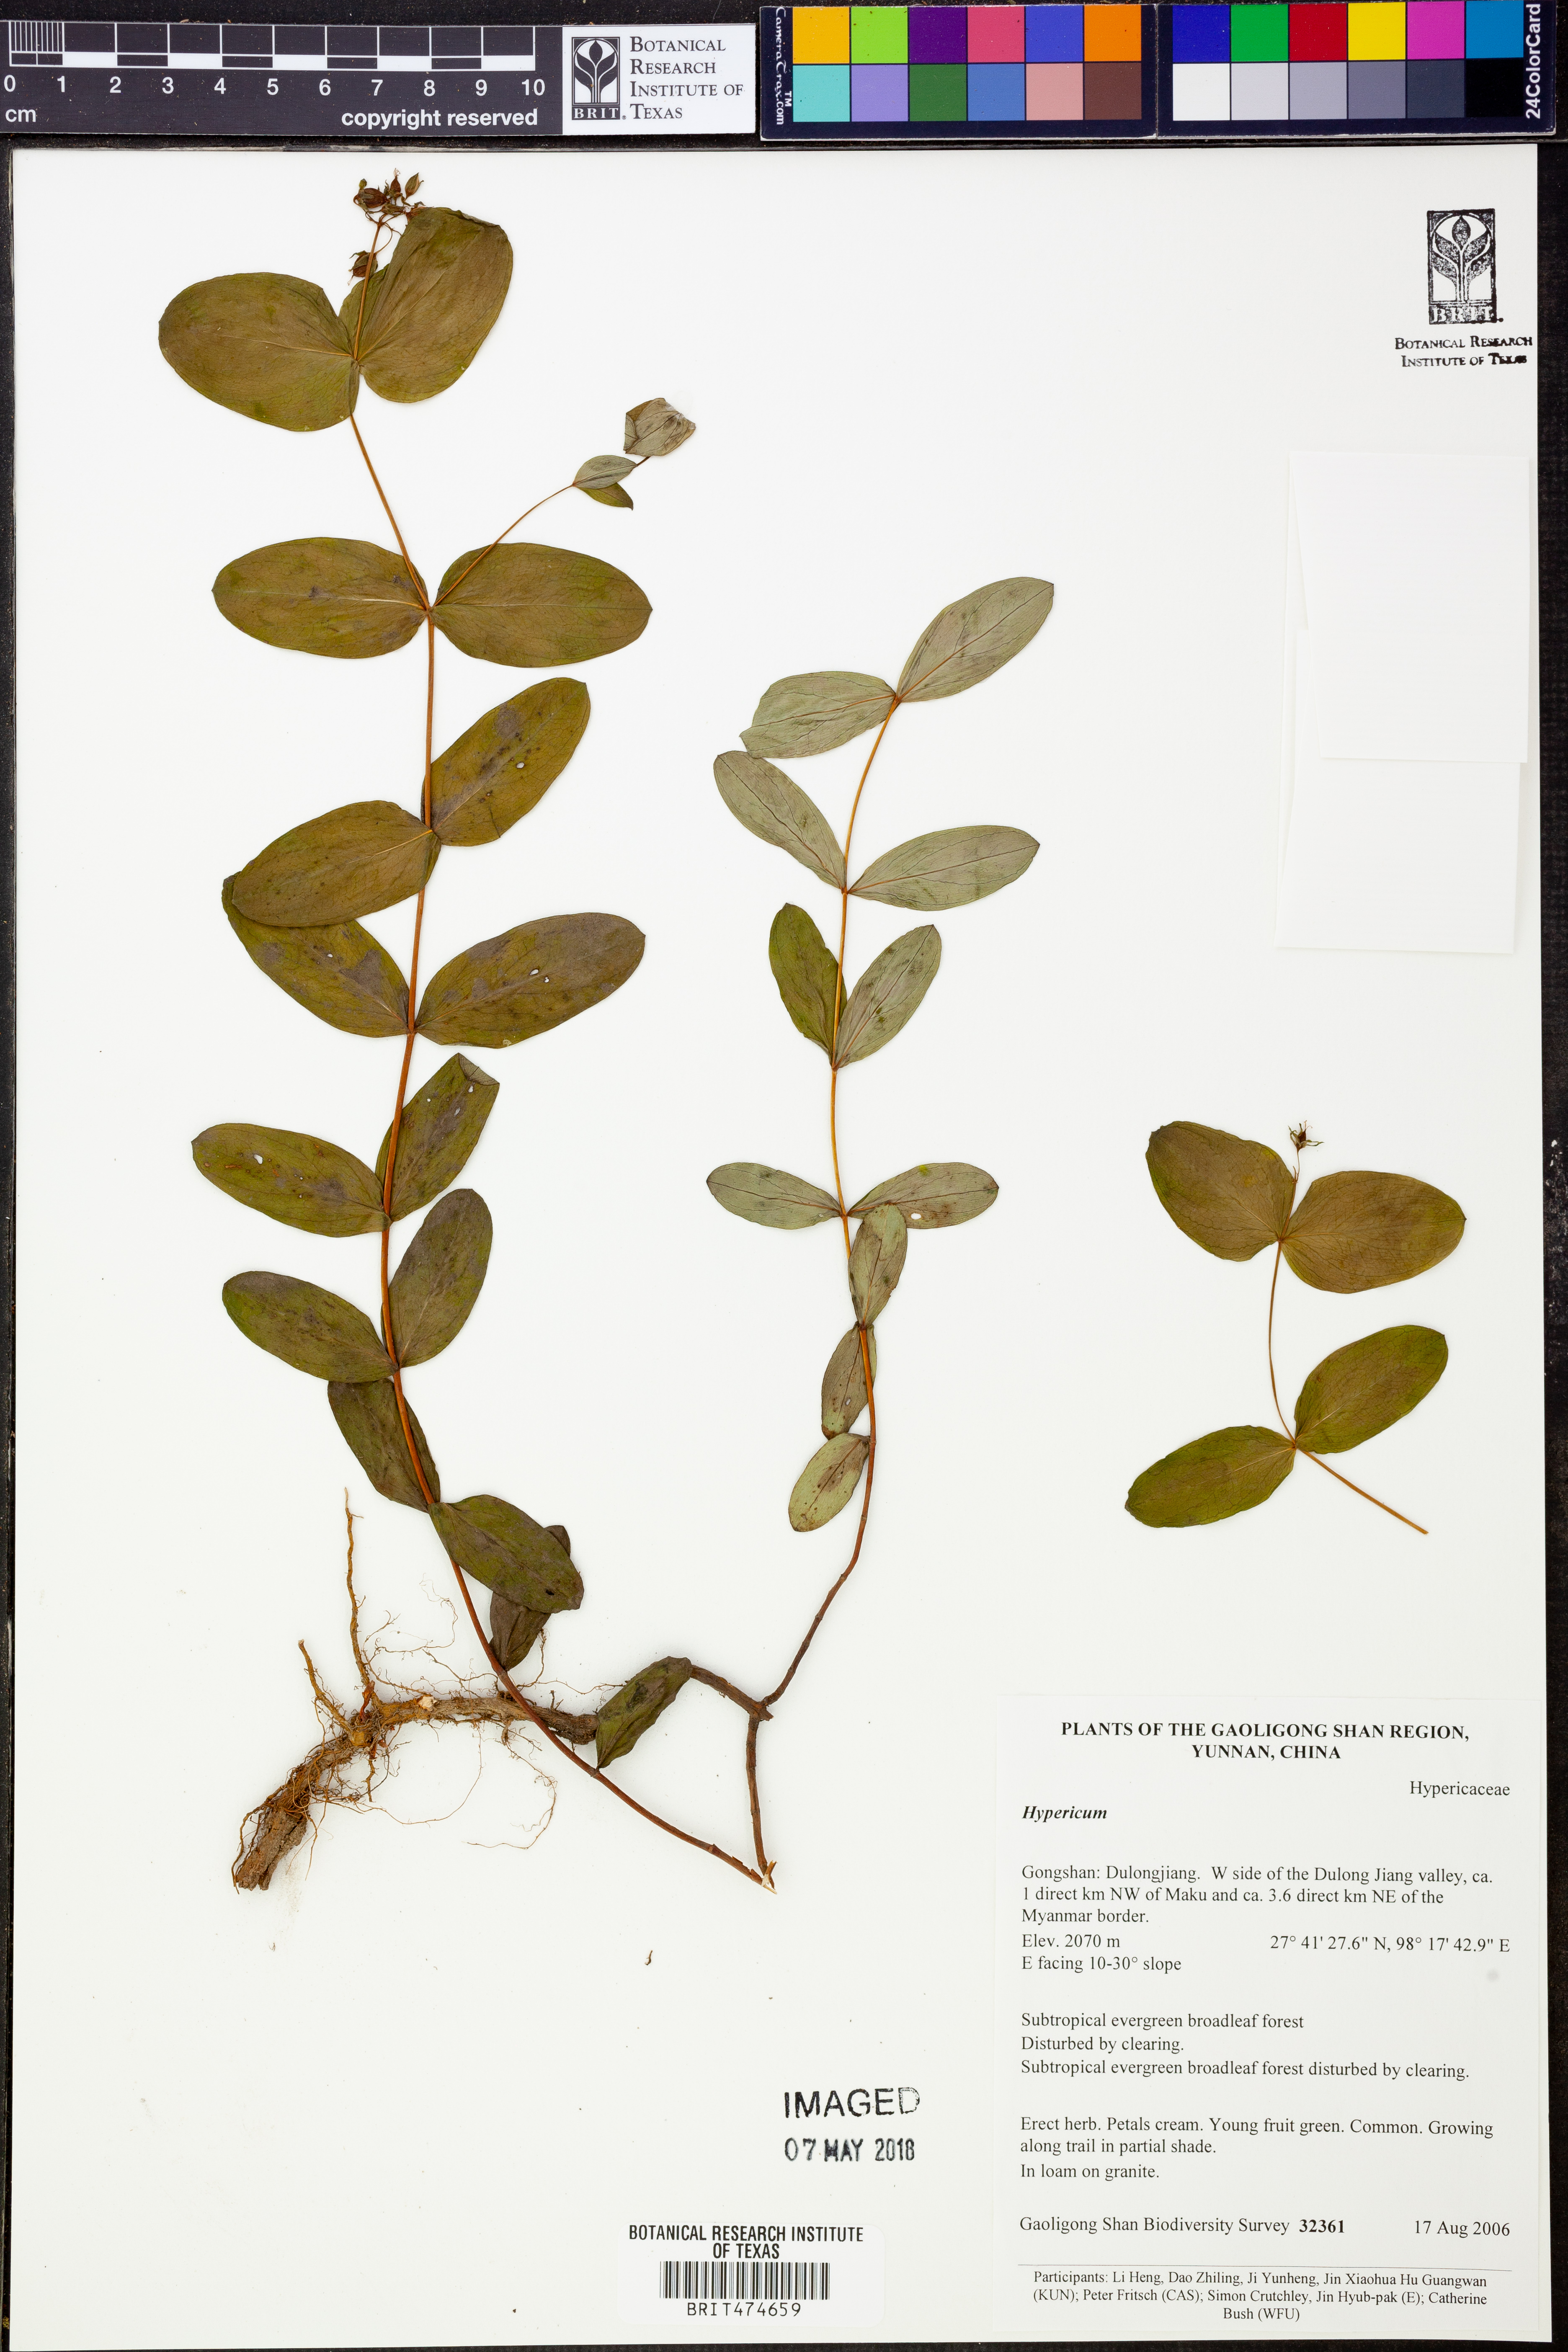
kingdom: Plantae
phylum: Tracheophyta
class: Magnoliopsida
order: Malpighiales
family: Hypericaceae
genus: Hypericum
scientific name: Hypericum
